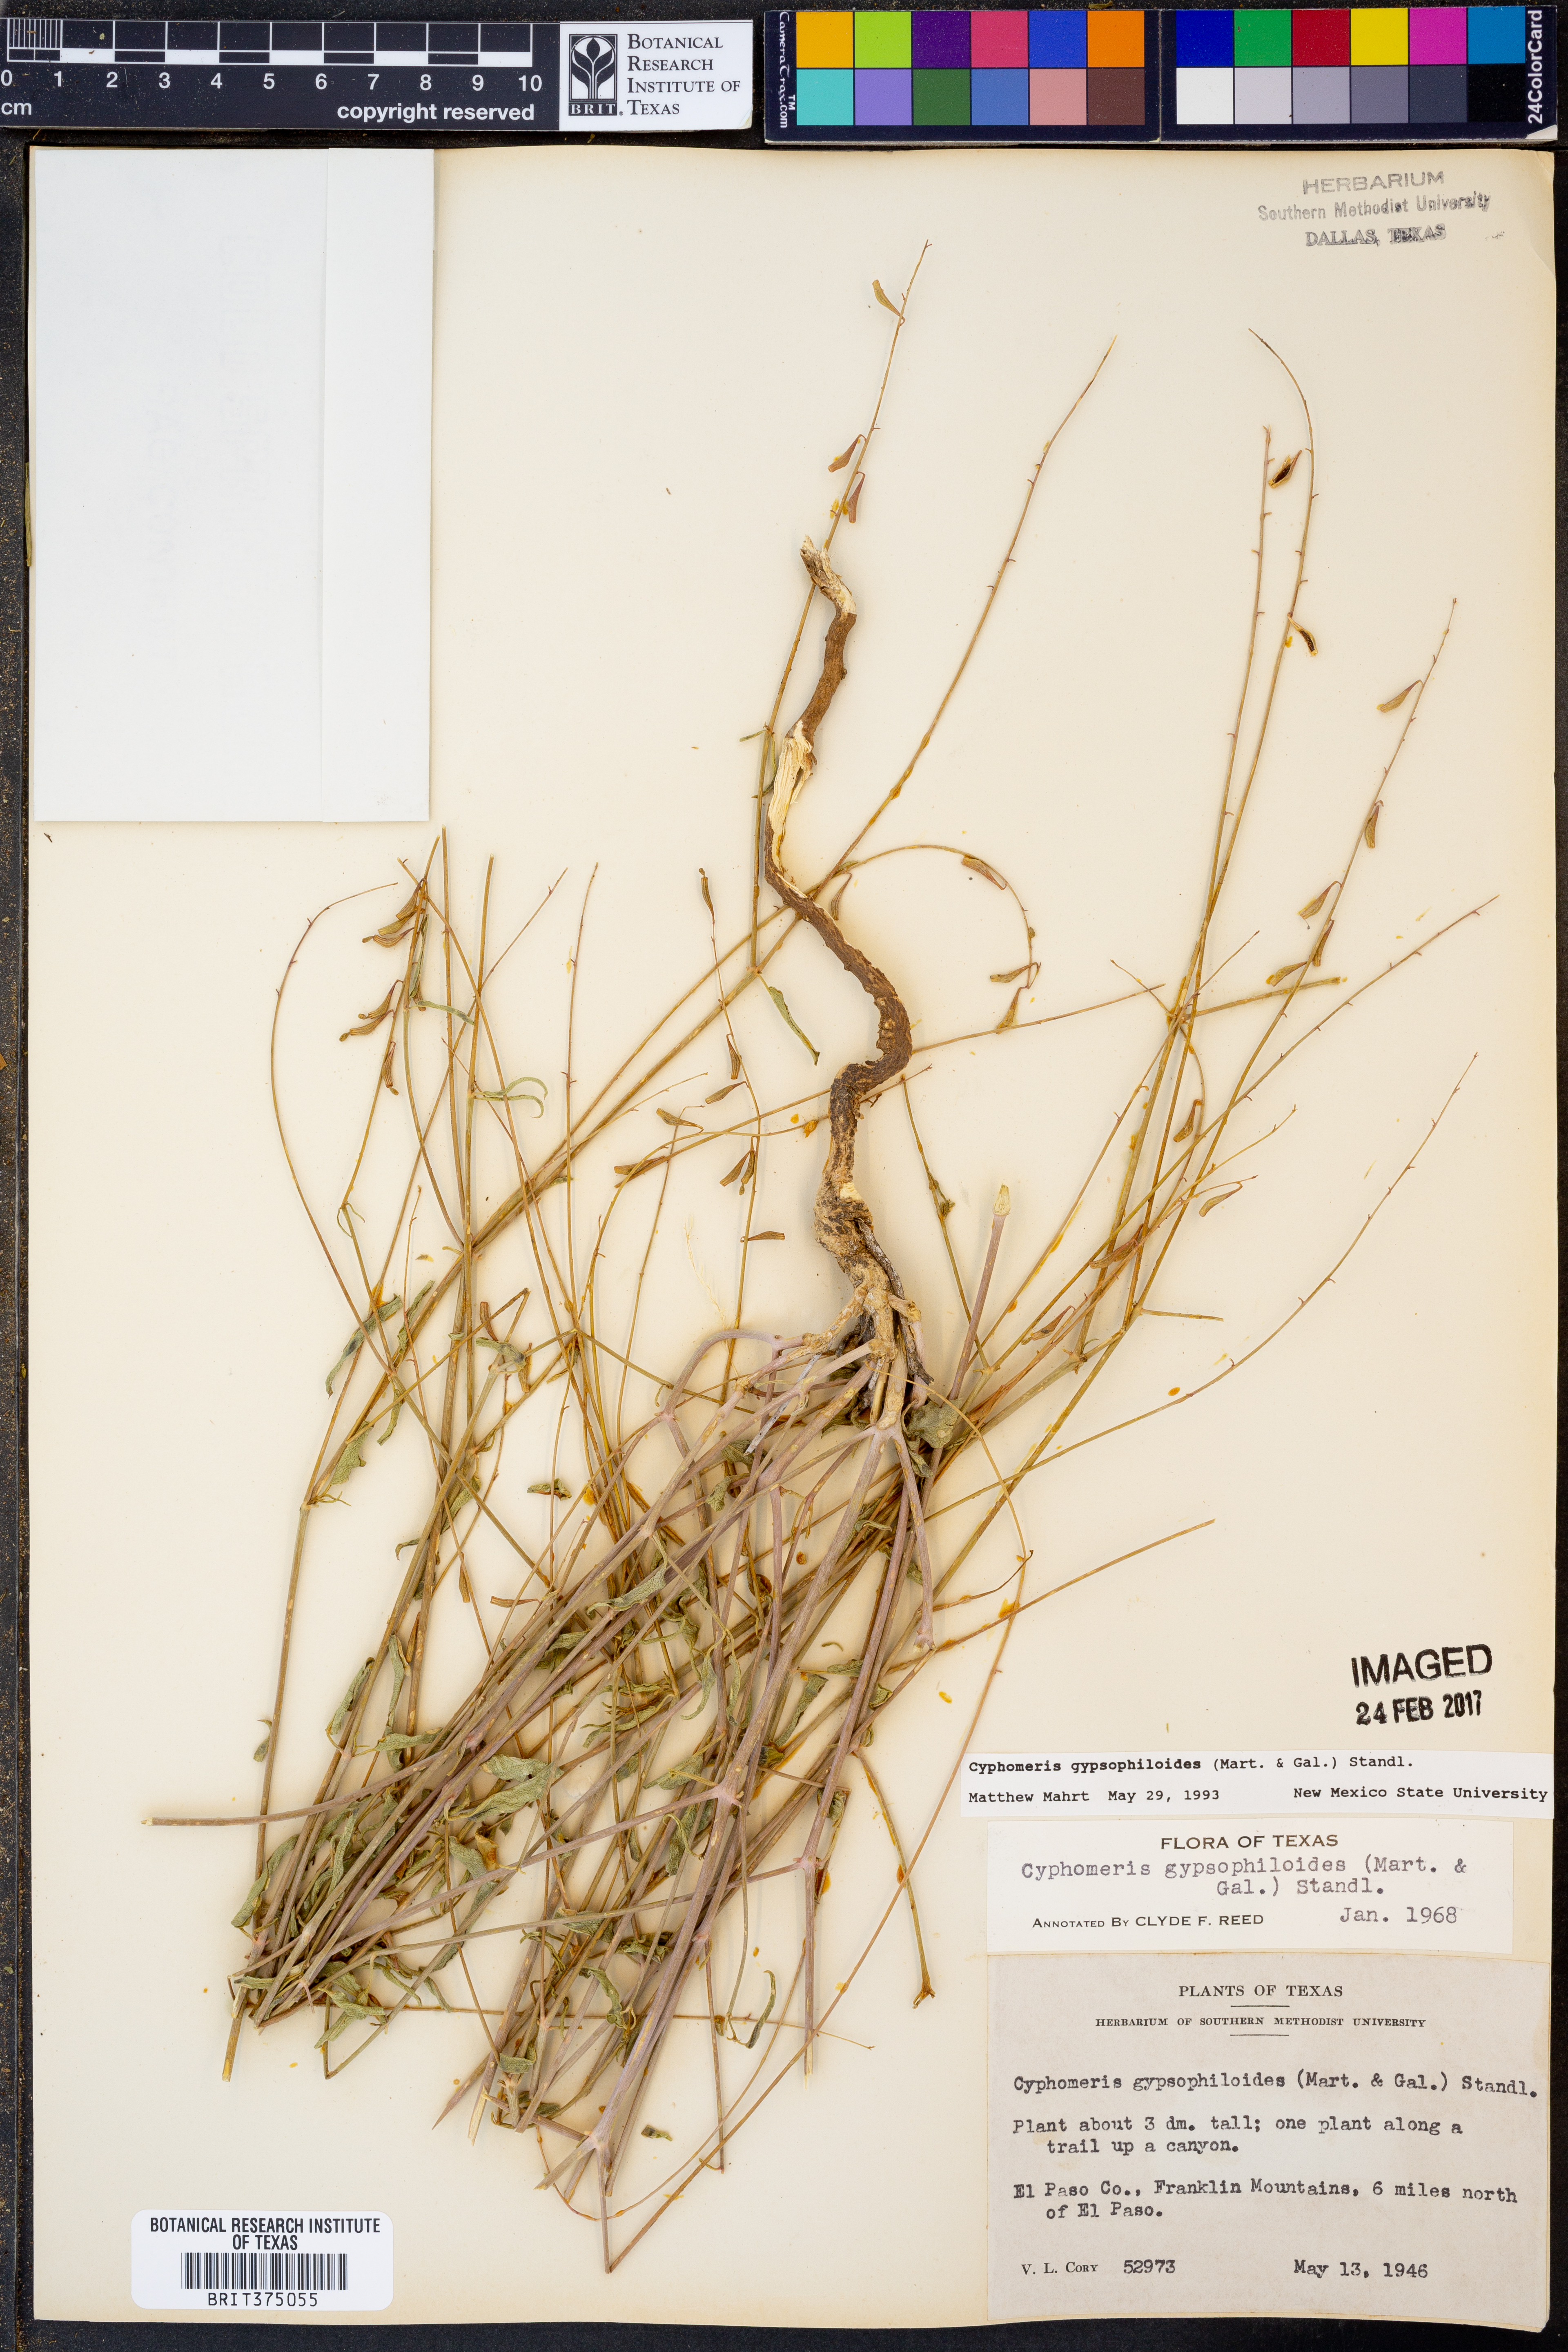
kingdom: Plantae
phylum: Tracheophyta
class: Magnoliopsida
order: Caryophyllales
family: Nyctaginaceae
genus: Cyphomeris
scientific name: Cyphomeris gypsophiloides
